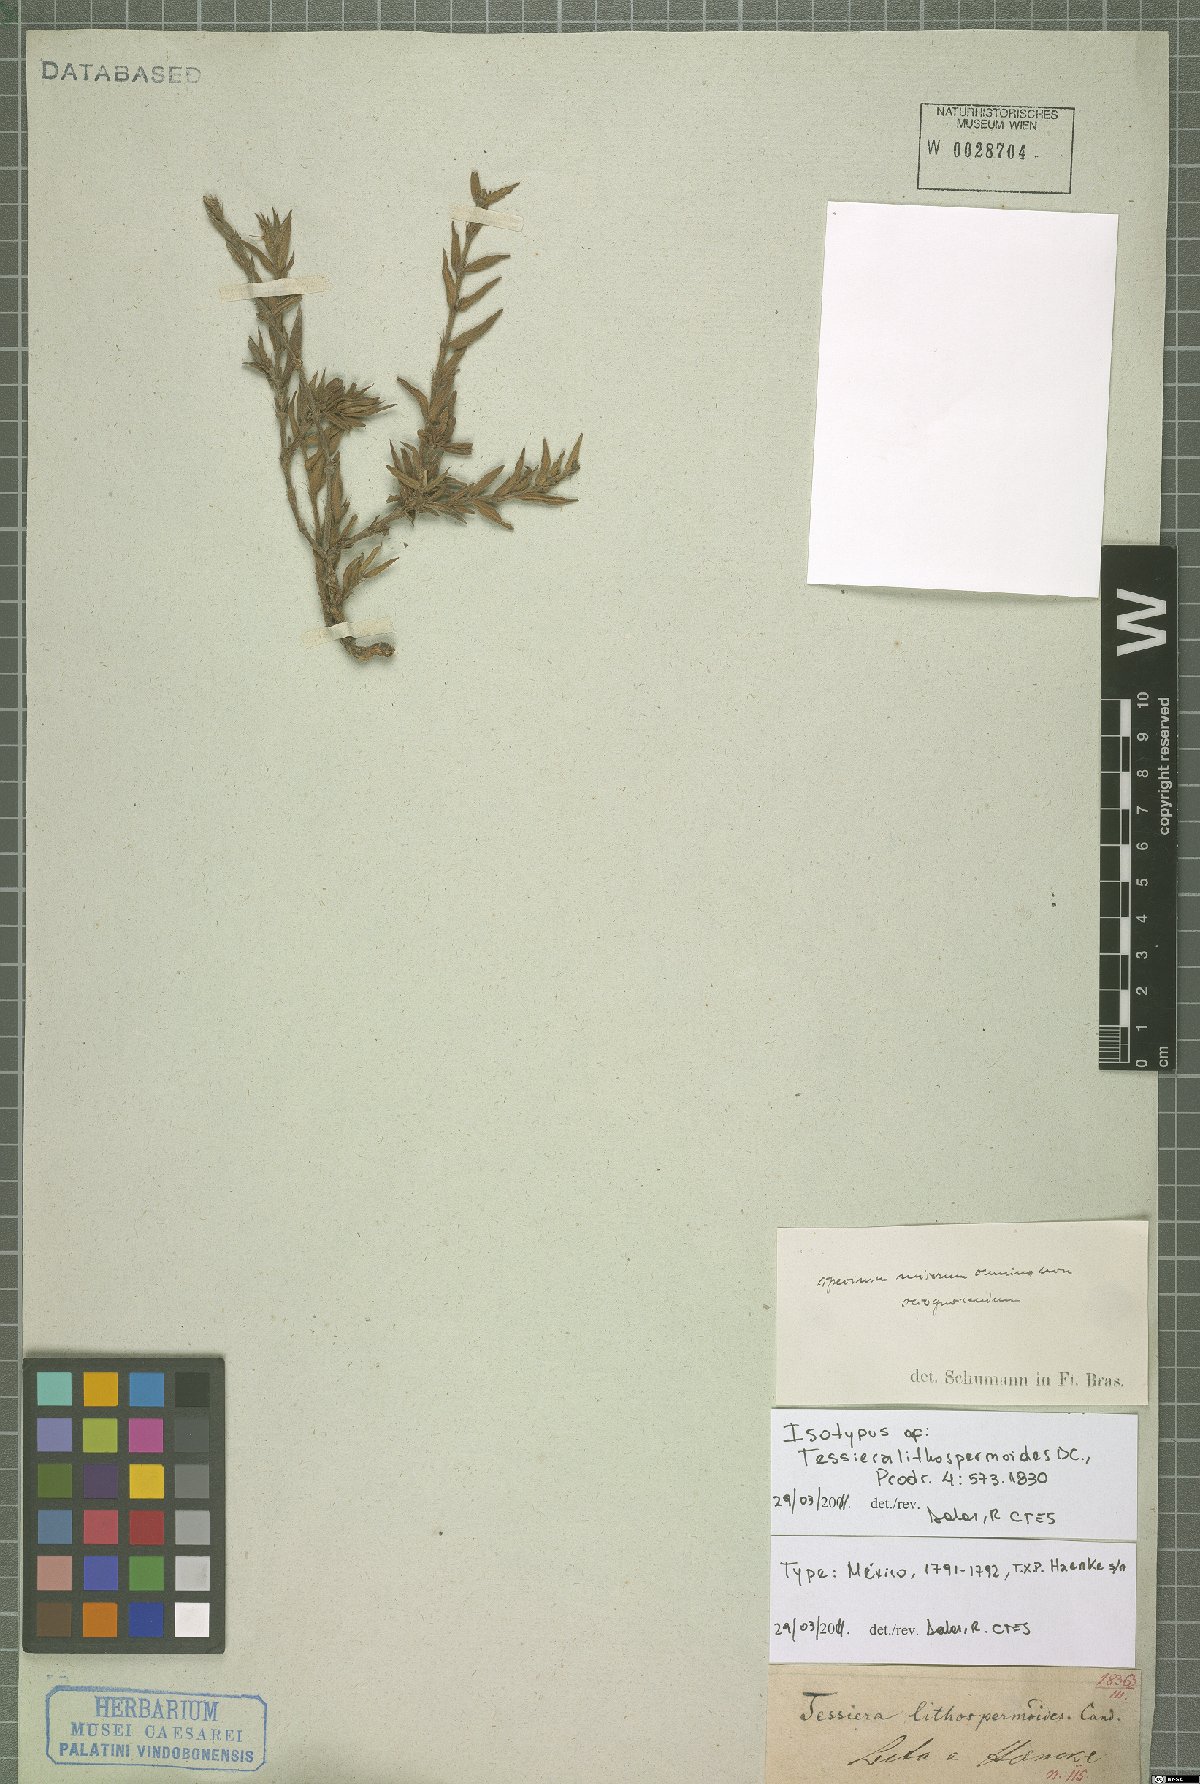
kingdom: Plantae
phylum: Tracheophyta
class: Magnoliopsida
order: Gentianales
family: Rubiaceae
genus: Tessiera
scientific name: Tessiera lithospermoides
